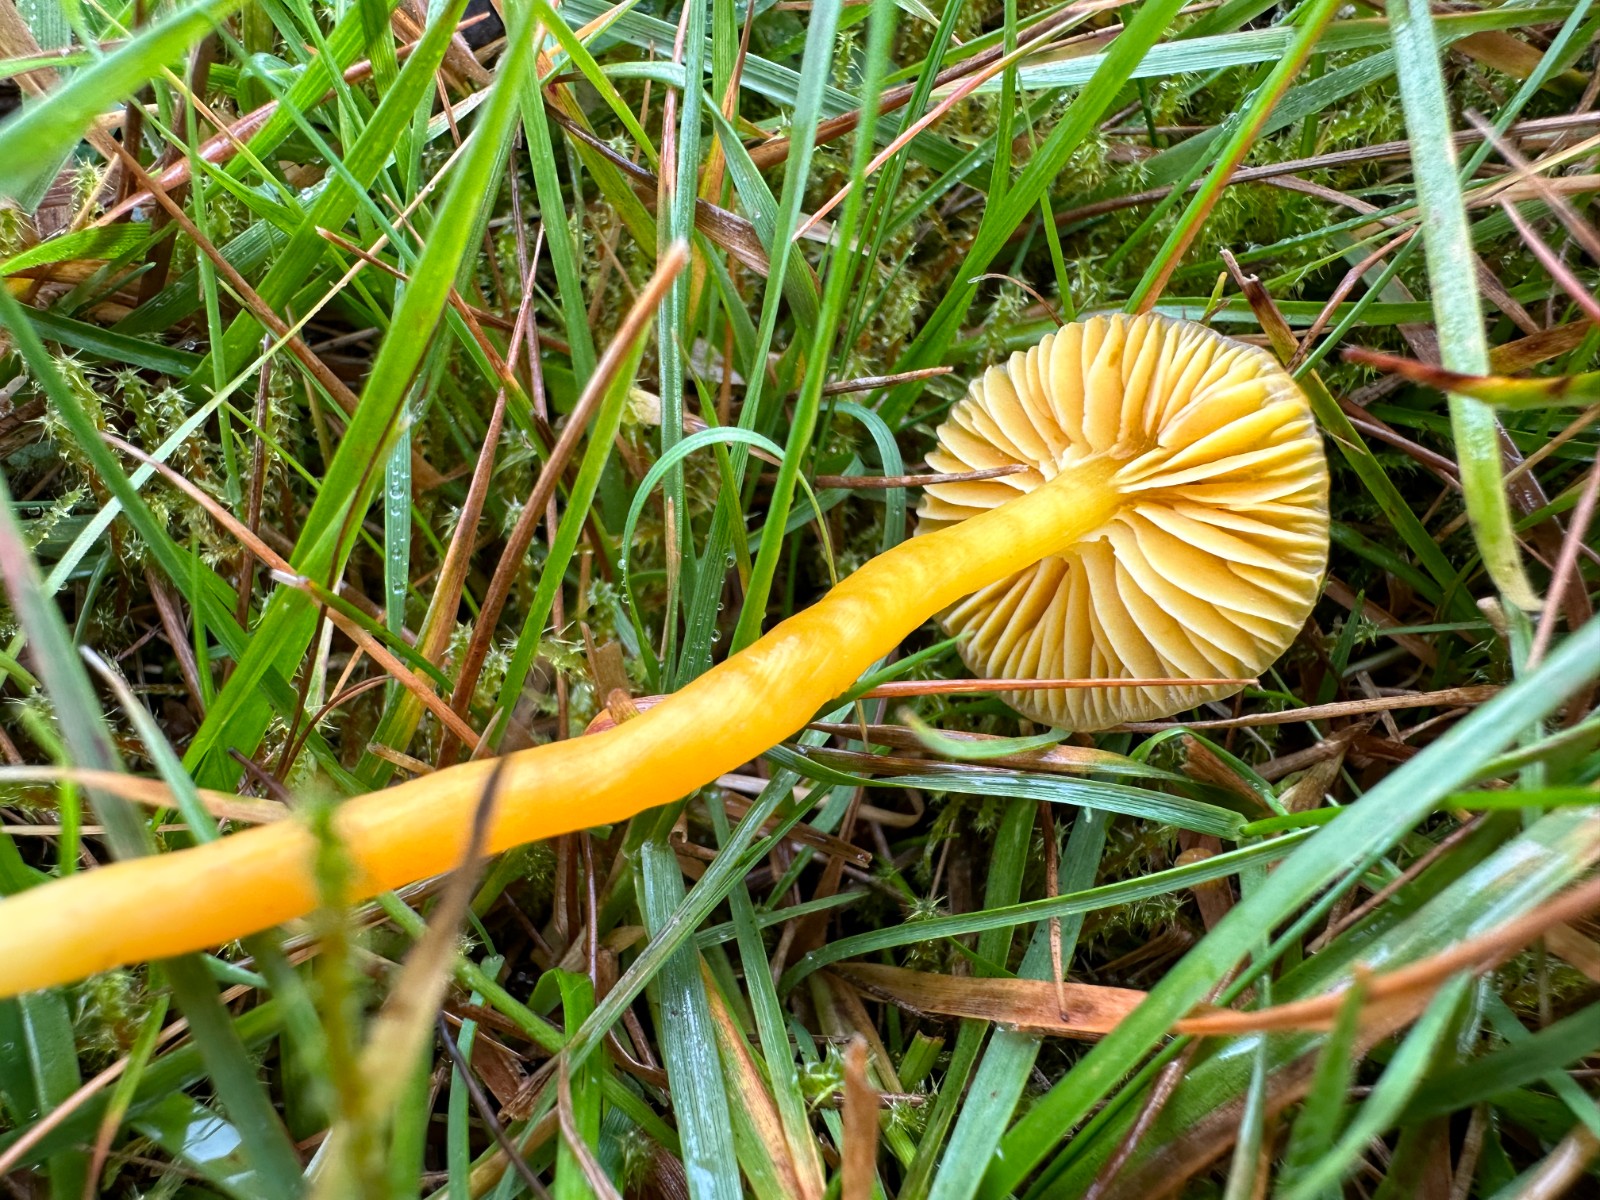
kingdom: Fungi
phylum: Basidiomycota
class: Agaricomycetes
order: Agaricales
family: Hygrophoraceae
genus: Hygrocybe
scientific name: Hygrocybe ceracea
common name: voksgul vokshat
